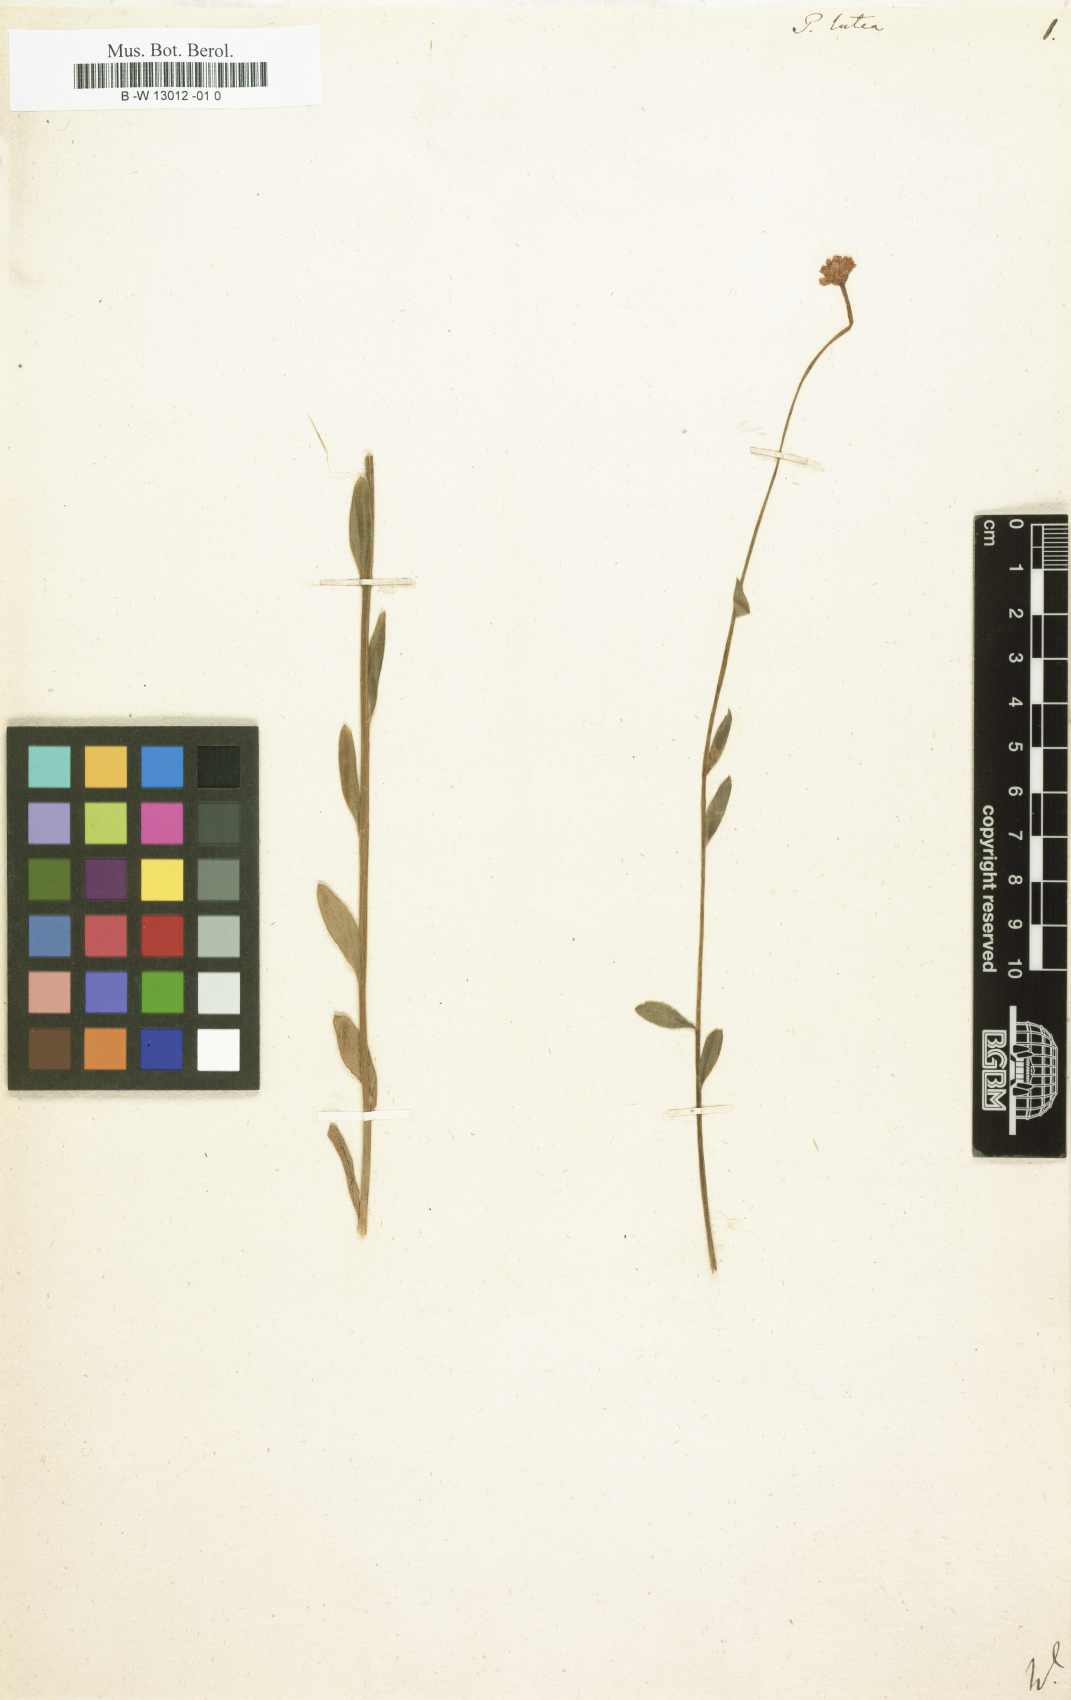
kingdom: Plantae
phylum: Tracheophyta
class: Magnoliopsida
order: Fabales
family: Polygalaceae
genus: Polygala
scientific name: Polygala lutea
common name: Orange milkwort
